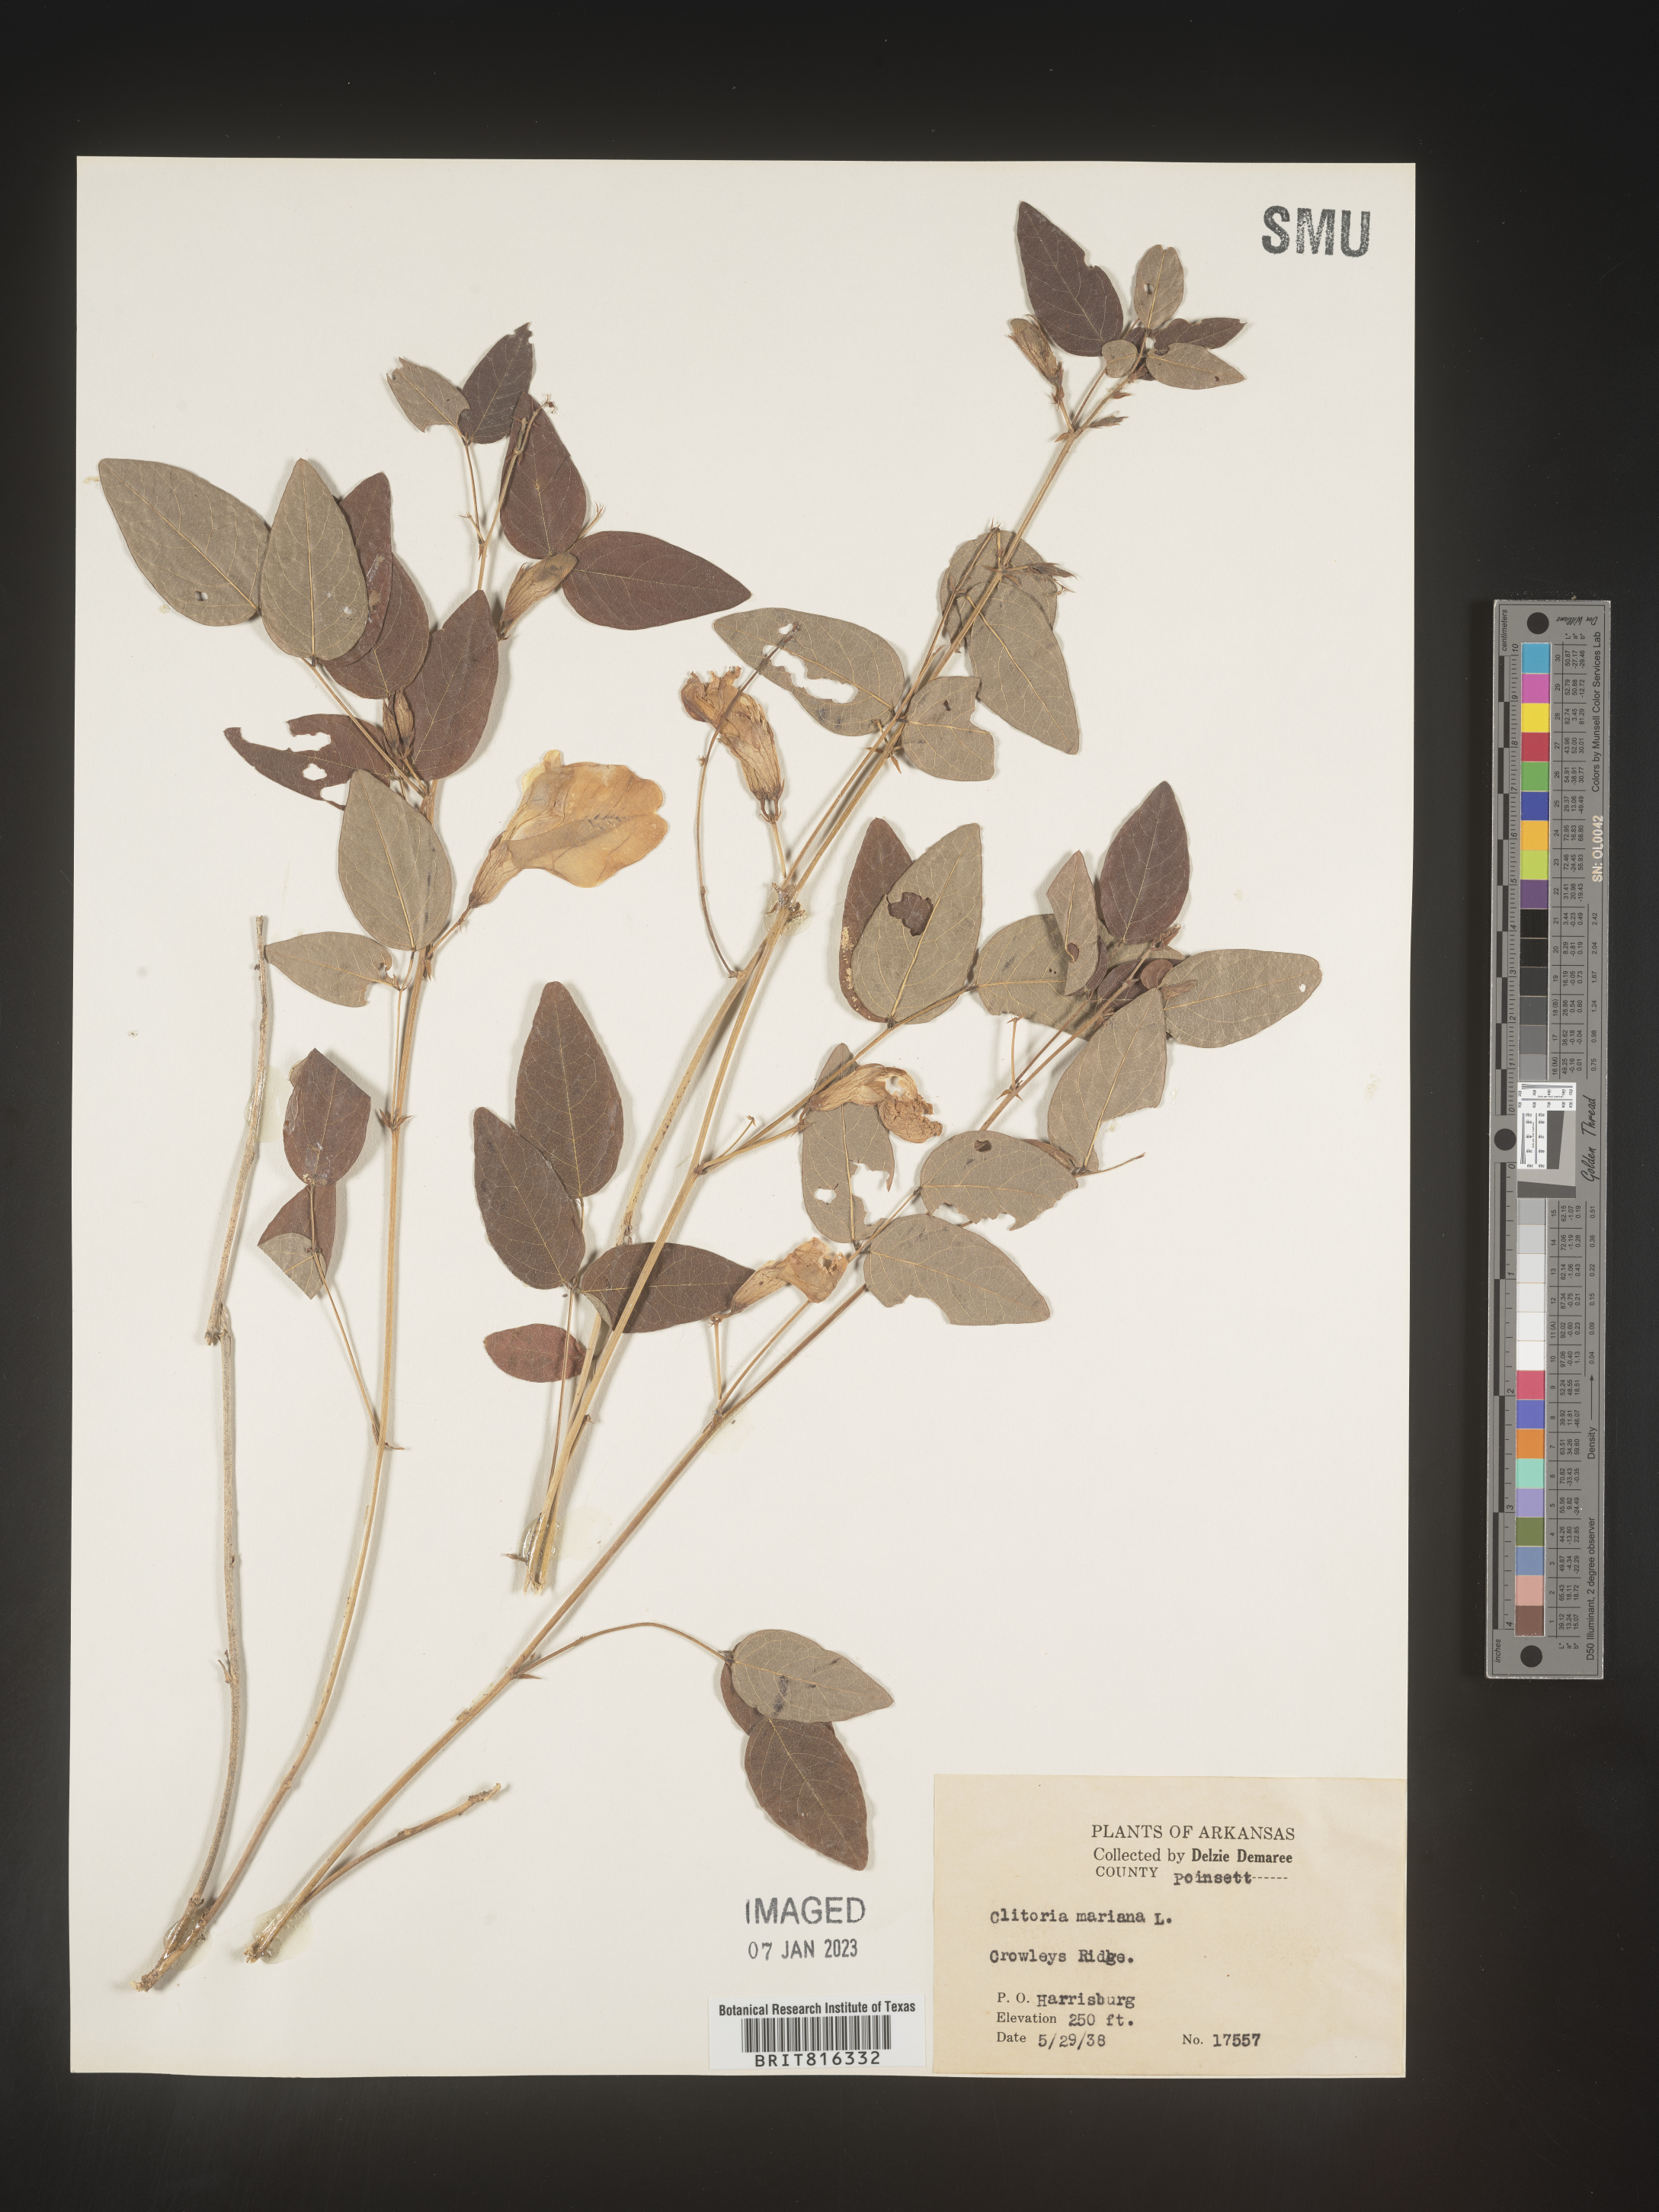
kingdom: Plantae
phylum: Tracheophyta
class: Magnoliopsida
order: Fabales
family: Fabaceae
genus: Clitoria
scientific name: Clitoria mariana
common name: Butterfly-pea
